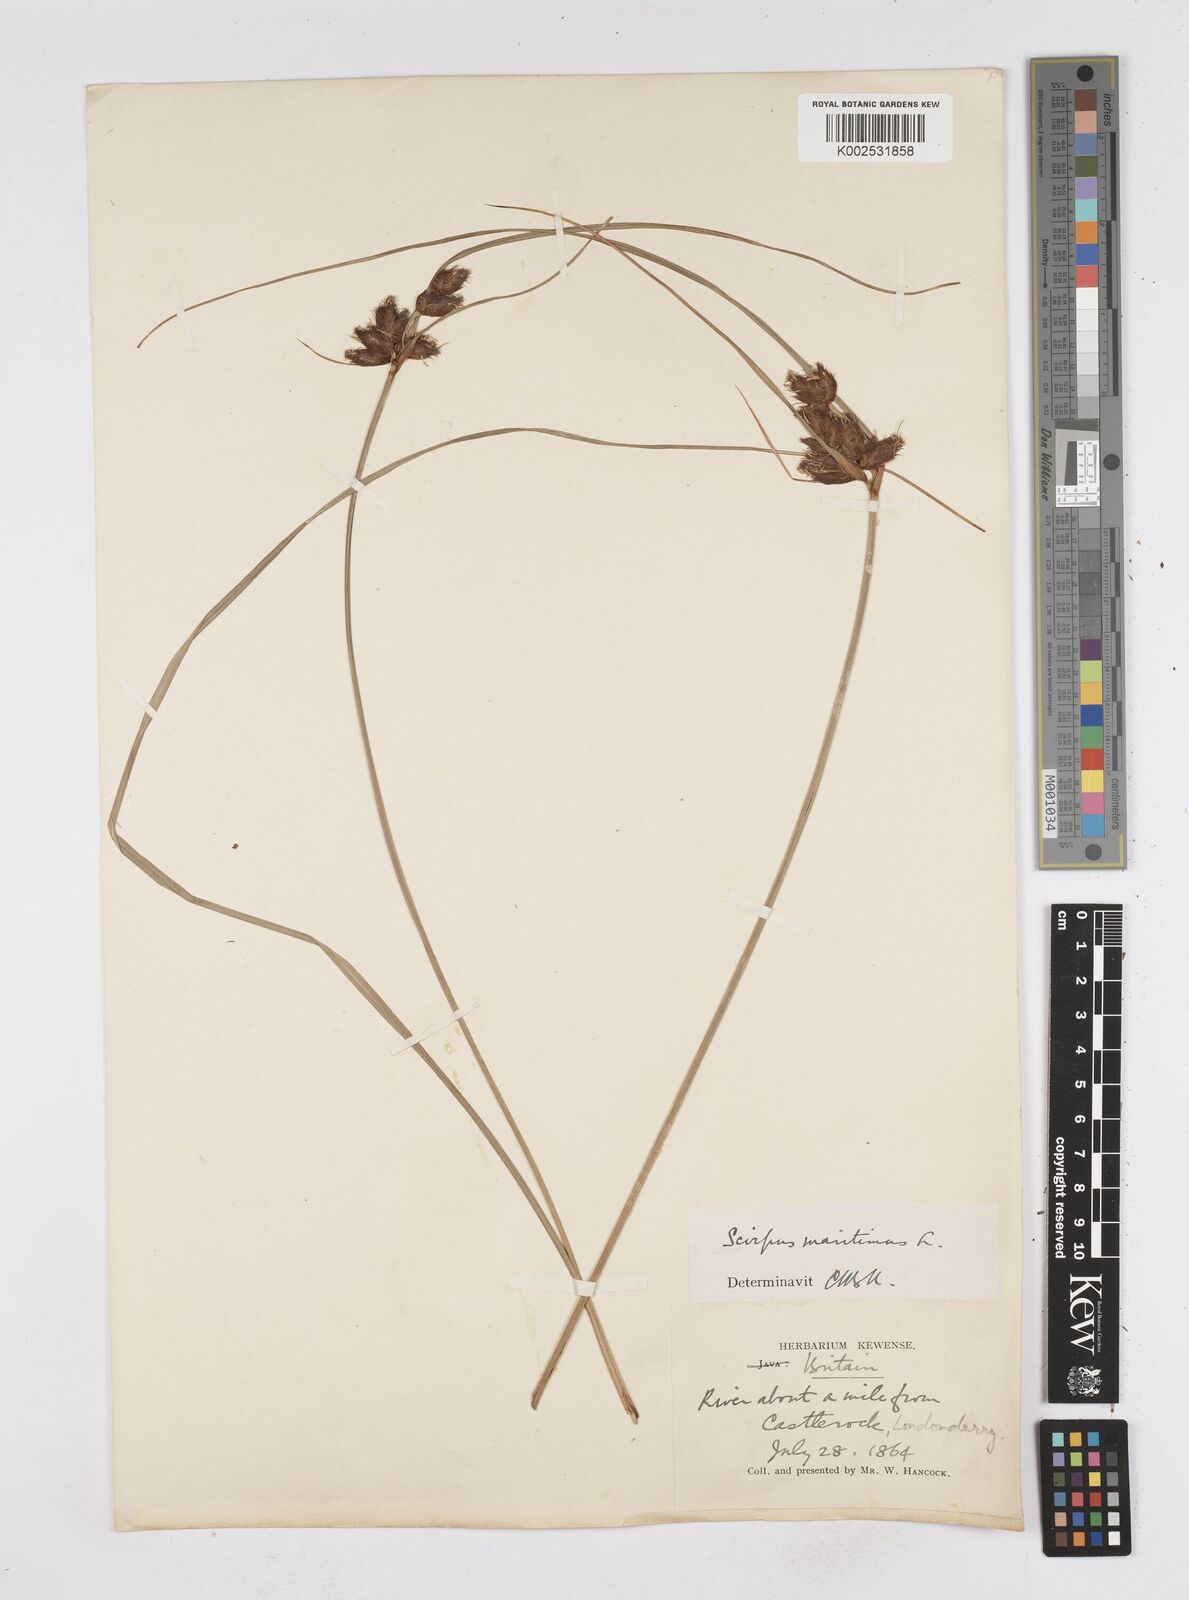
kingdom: Plantae
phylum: Tracheophyta
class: Liliopsida
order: Poales
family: Cyperaceae
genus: Bolboschoenus
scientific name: Bolboschoenus maritimus
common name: Sea club-rush
